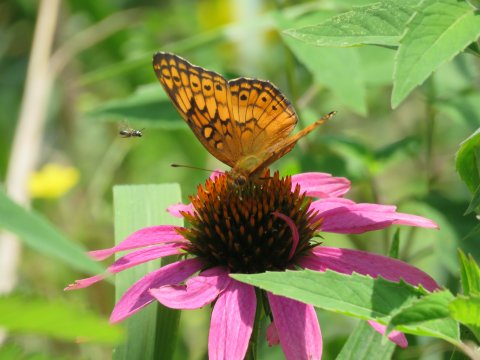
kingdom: Animalia
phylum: Arthropoda
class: Insecta
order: Lepidoptera
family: Nymphalidae
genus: Euptoieta
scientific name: Euptoieta claudia
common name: Variegated Fritillary
